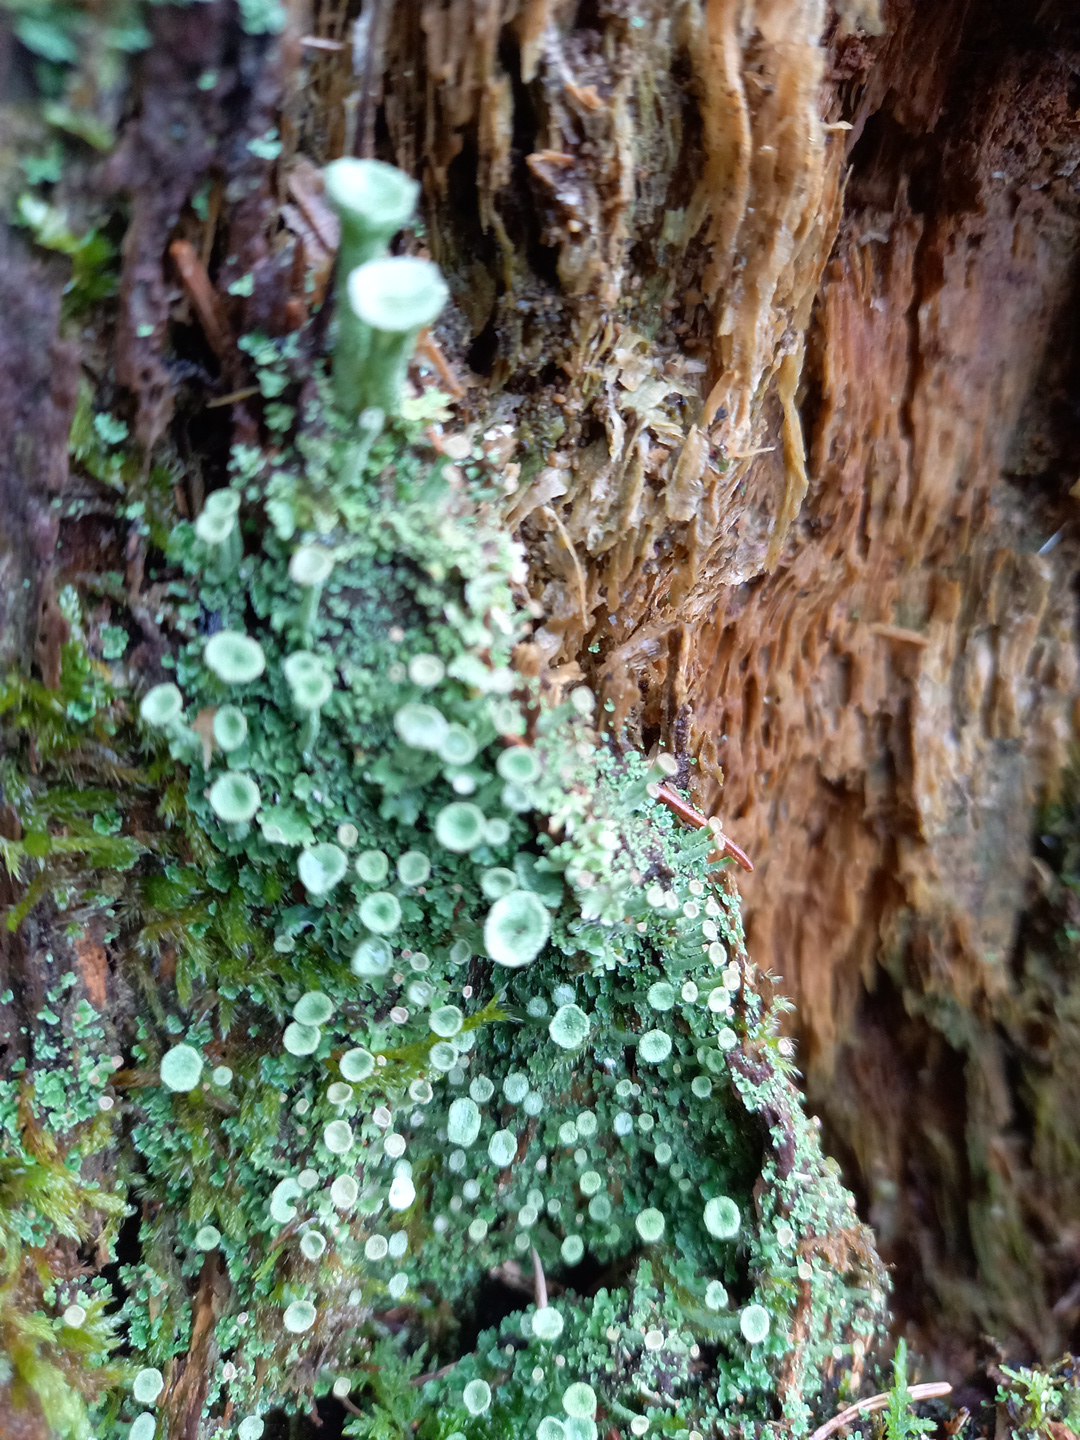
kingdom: Fungi
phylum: Ascomycota
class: Lecanoromycetes
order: Lecanorales
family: Cladoniaceae
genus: Cladonia
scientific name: Cladonia
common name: brungrøn bægerlav
